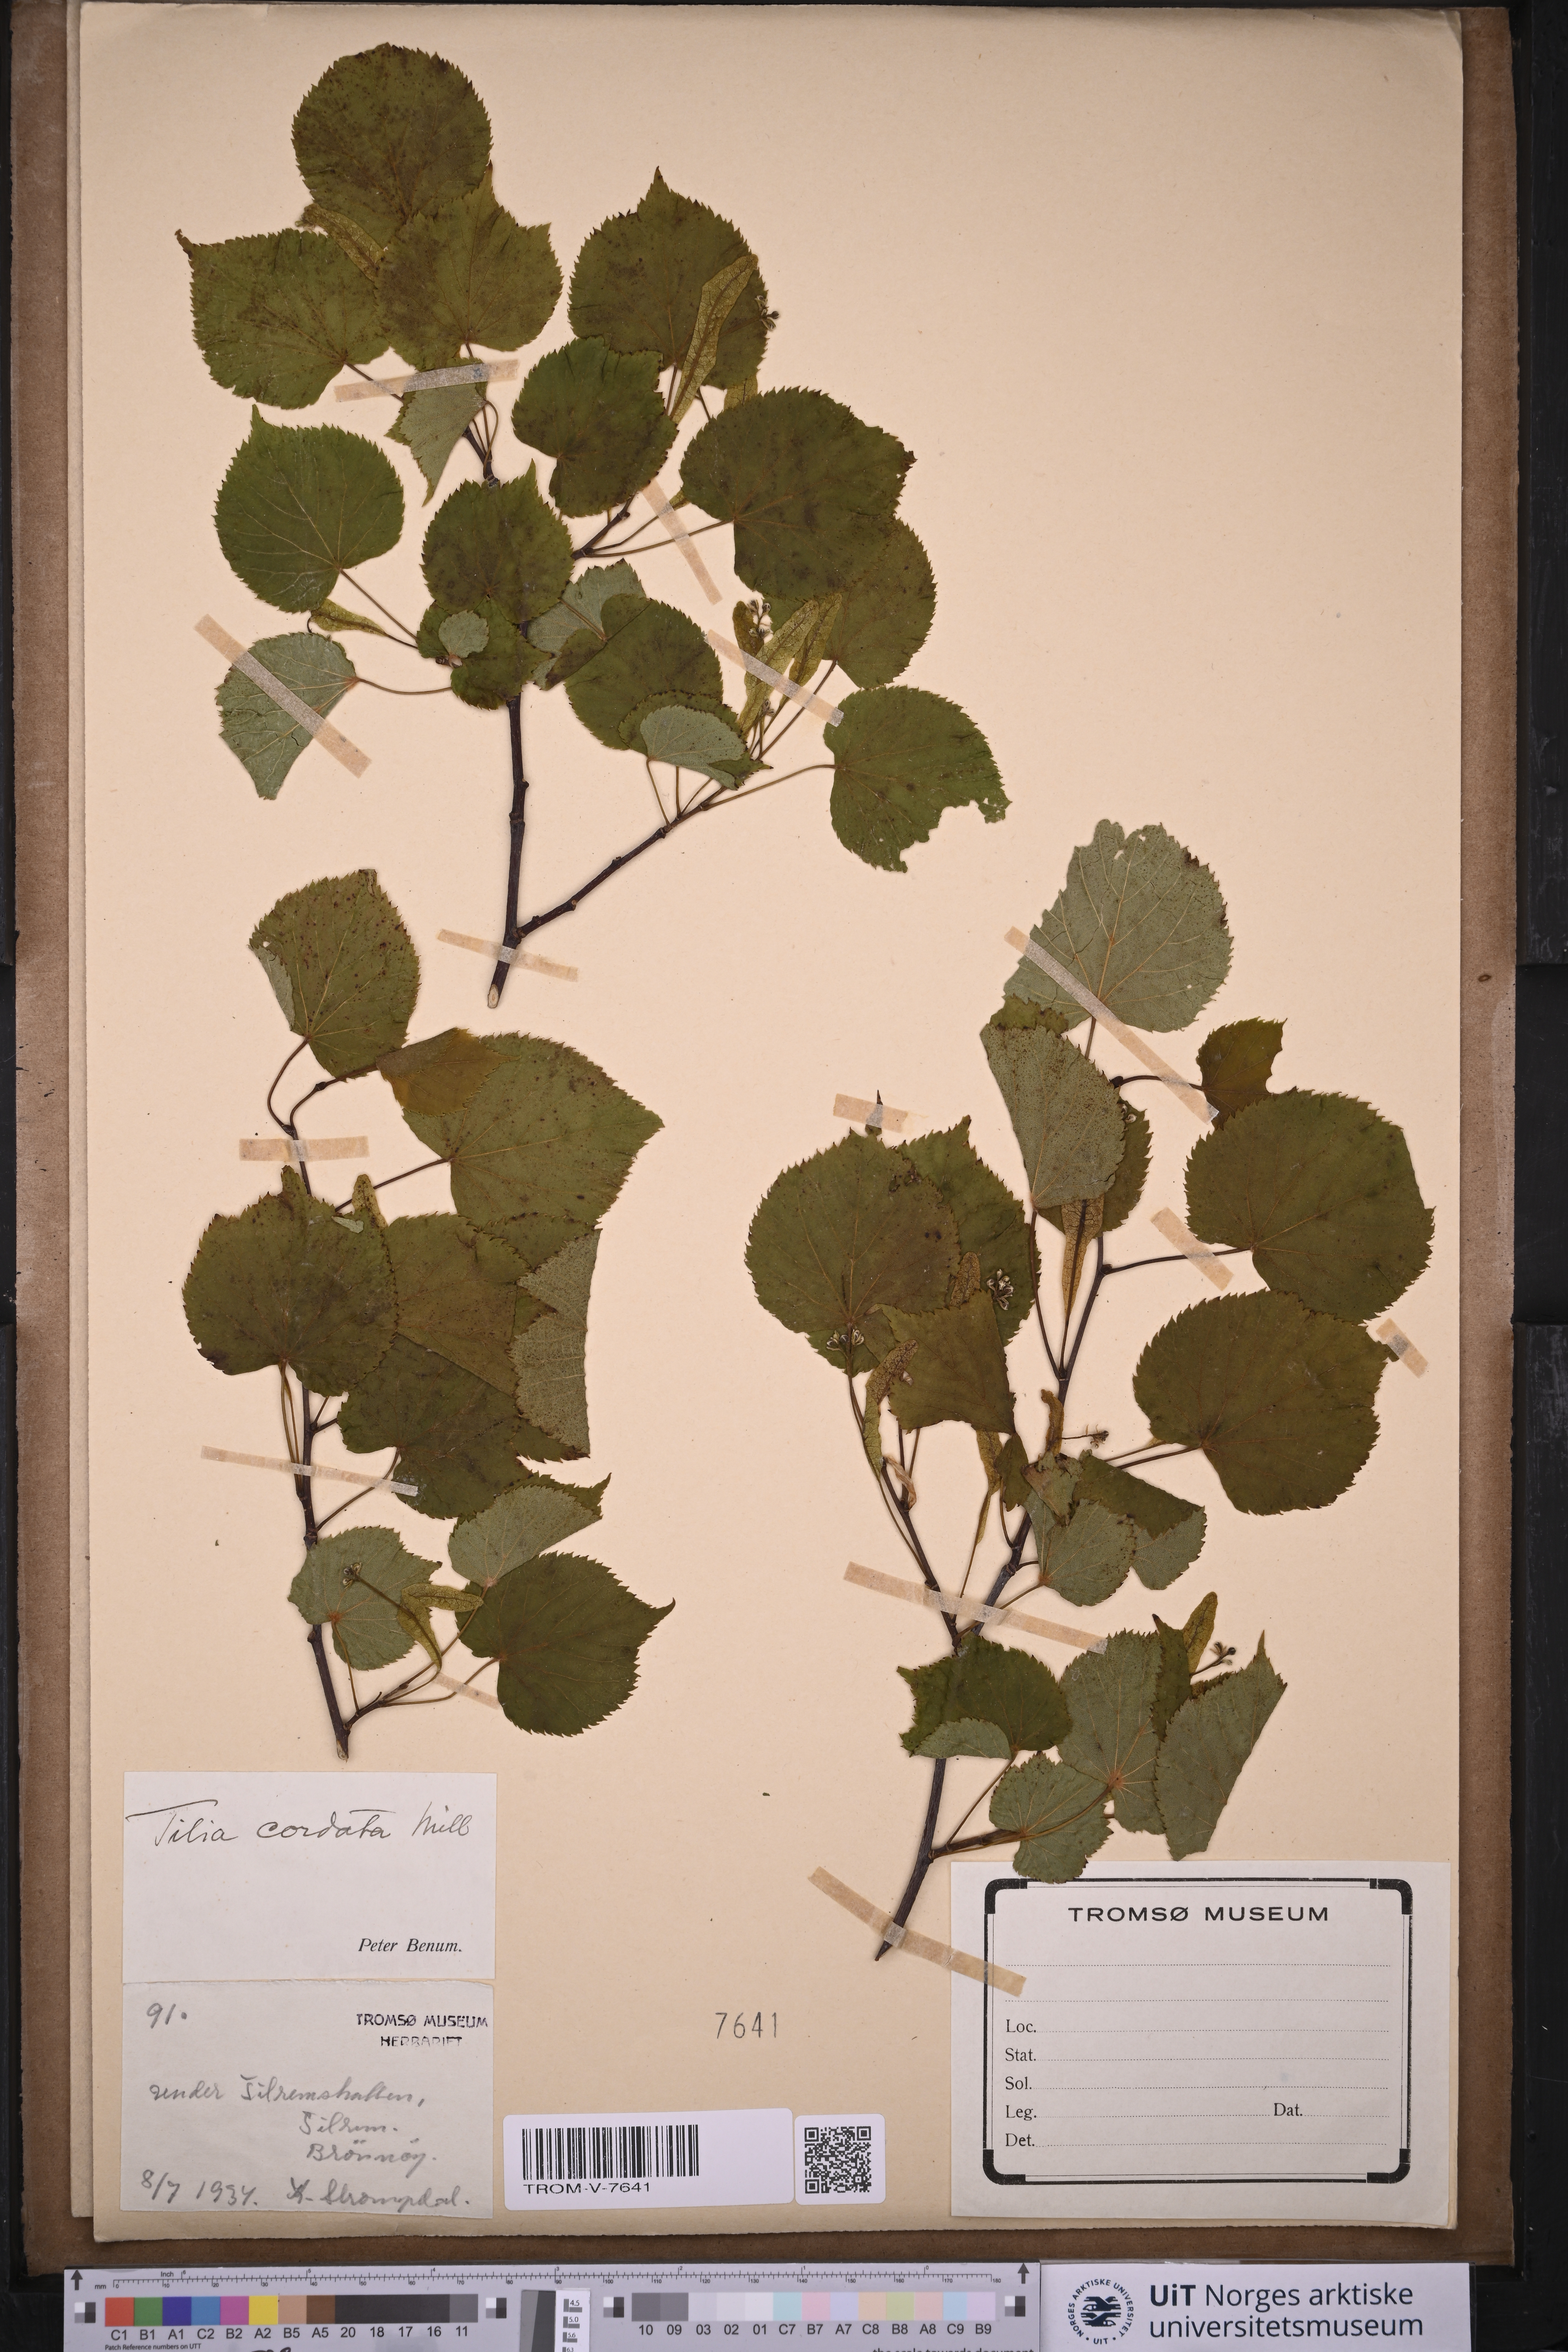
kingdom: Plantae
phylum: Tracheophyta
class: Magnoliopsida
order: Malvales
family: Malvaceae
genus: Tilia
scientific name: Tilia cordata
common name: Small-leaved lime
